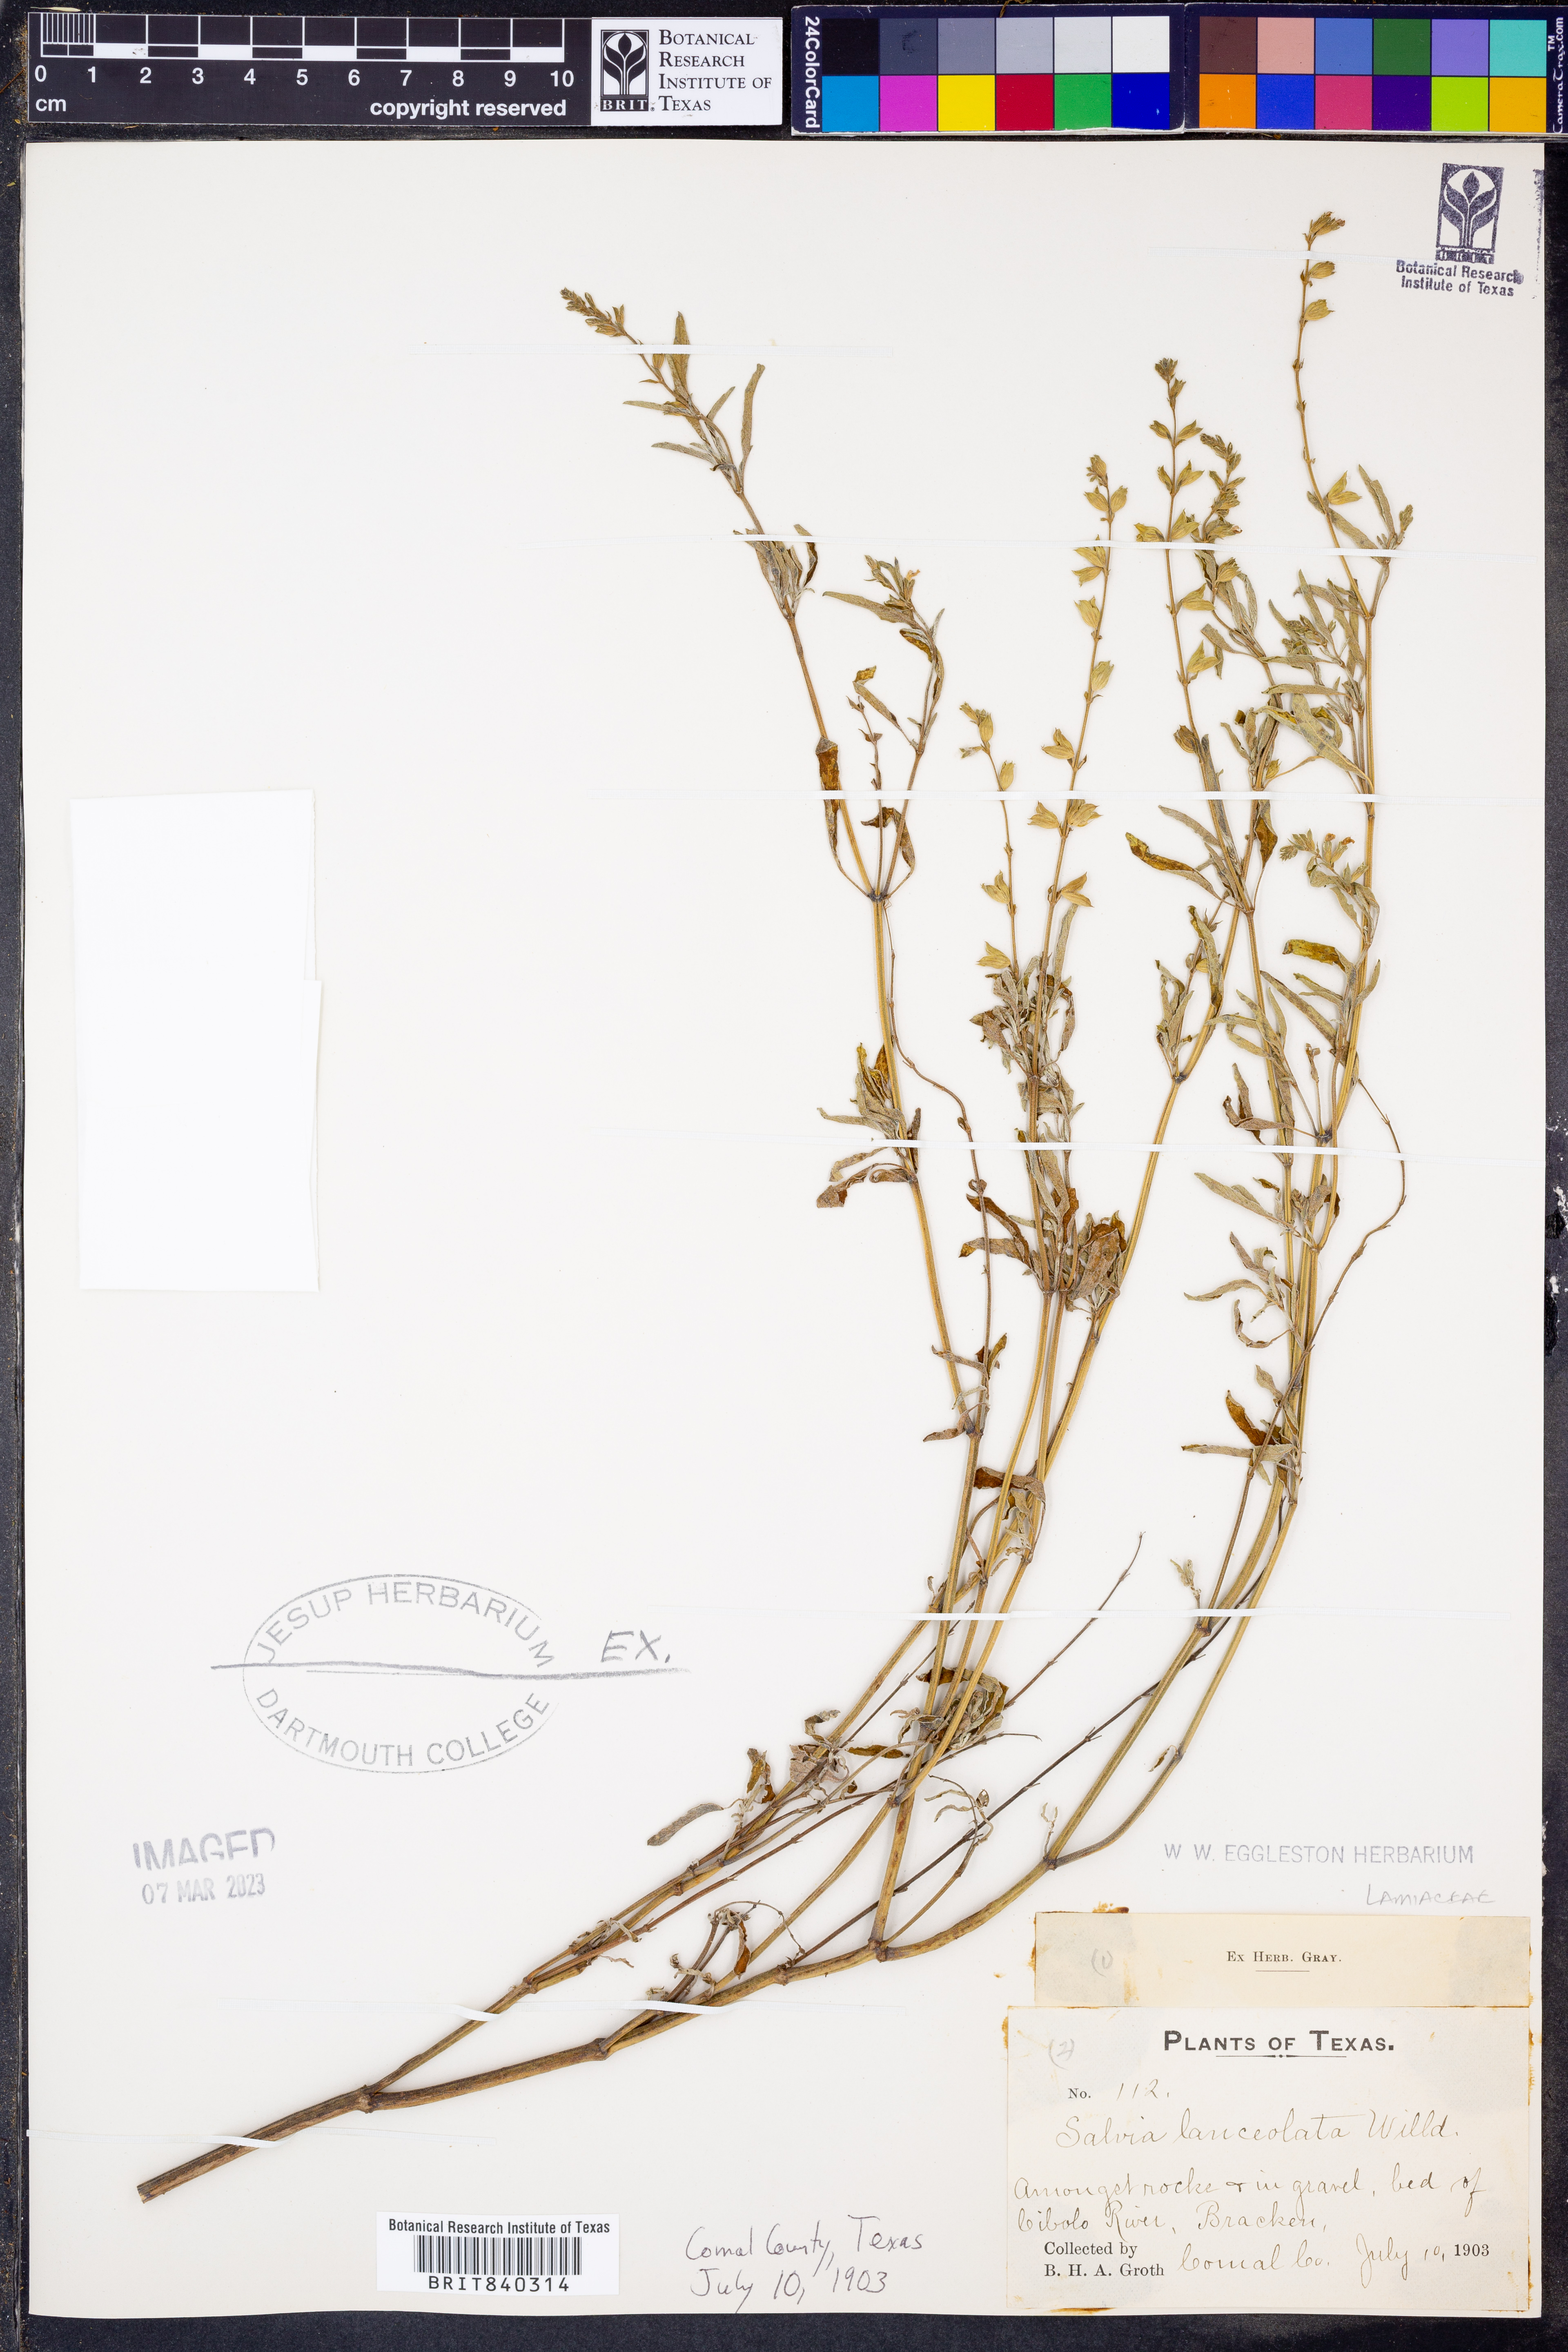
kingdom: Plantae
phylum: Tracheophyta
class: Magnoliopsida
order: Lamiales
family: Lamiaceae
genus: Salvia
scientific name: Salvia uliginosa
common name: Bog sage
